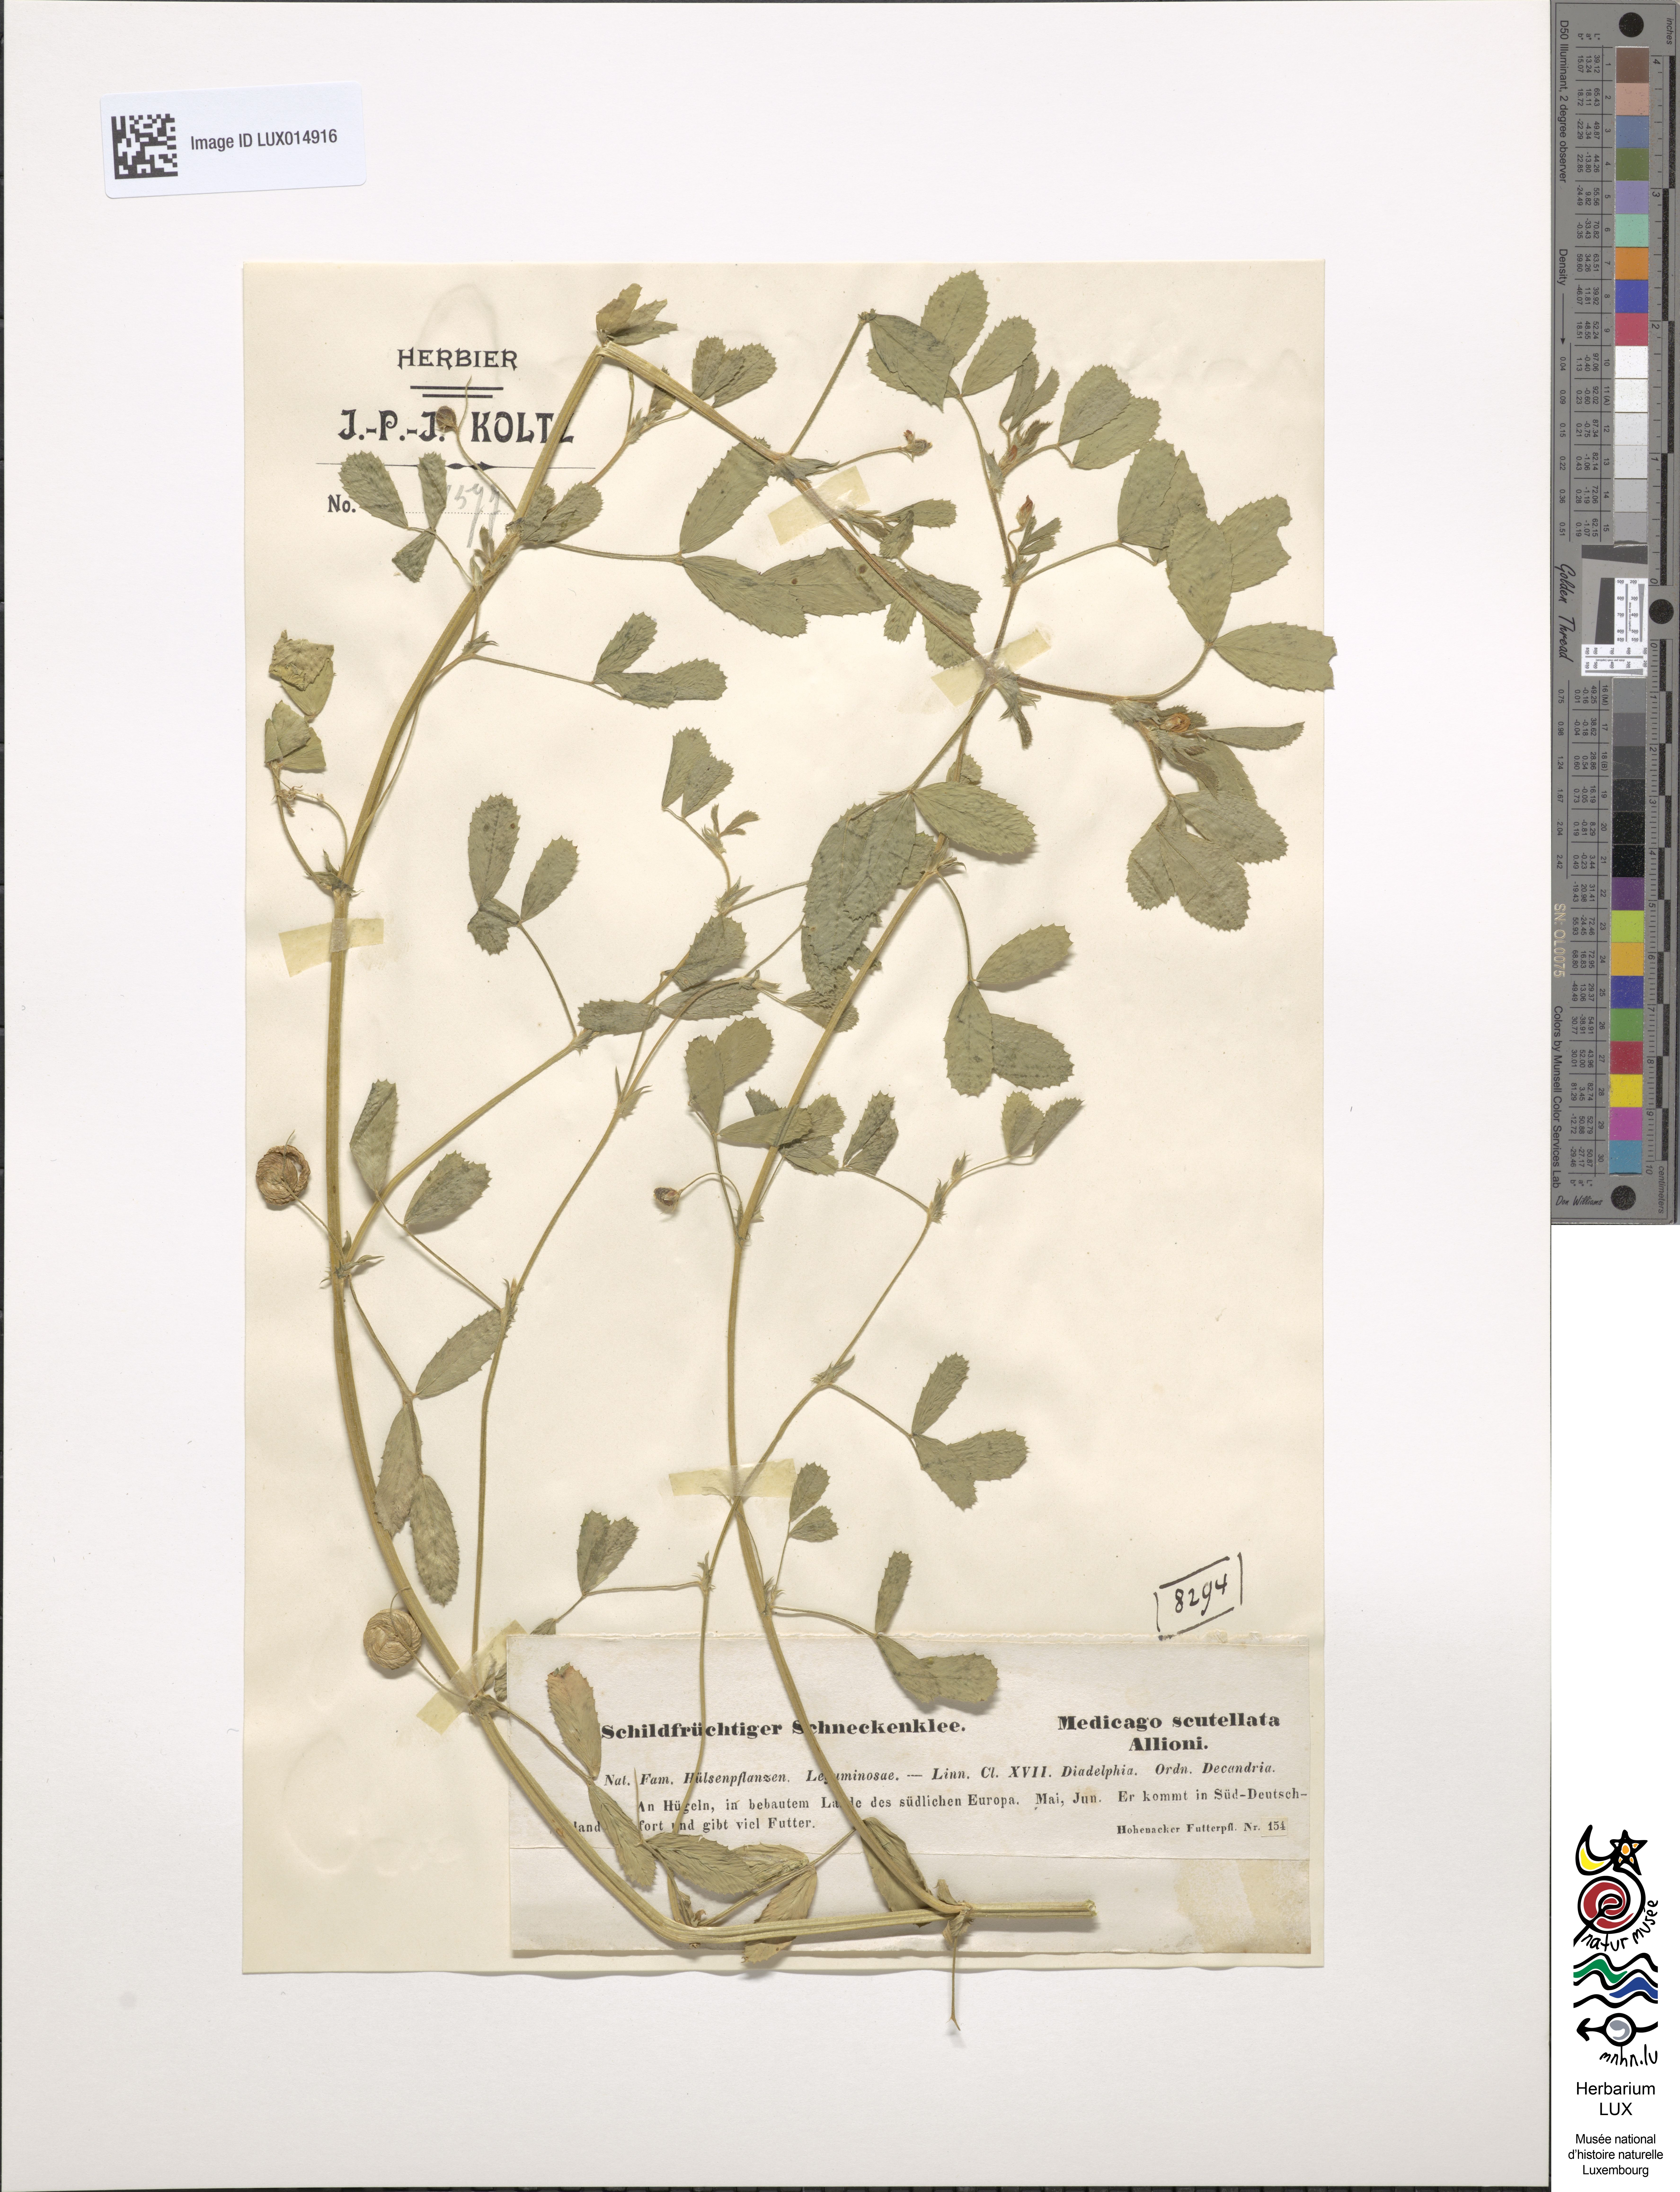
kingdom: Plantae
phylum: Tracheophyta
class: Magnoliopsida
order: Fabales
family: Fabaceae
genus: Medicago
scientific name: Medicago scutellata
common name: Snail medick
